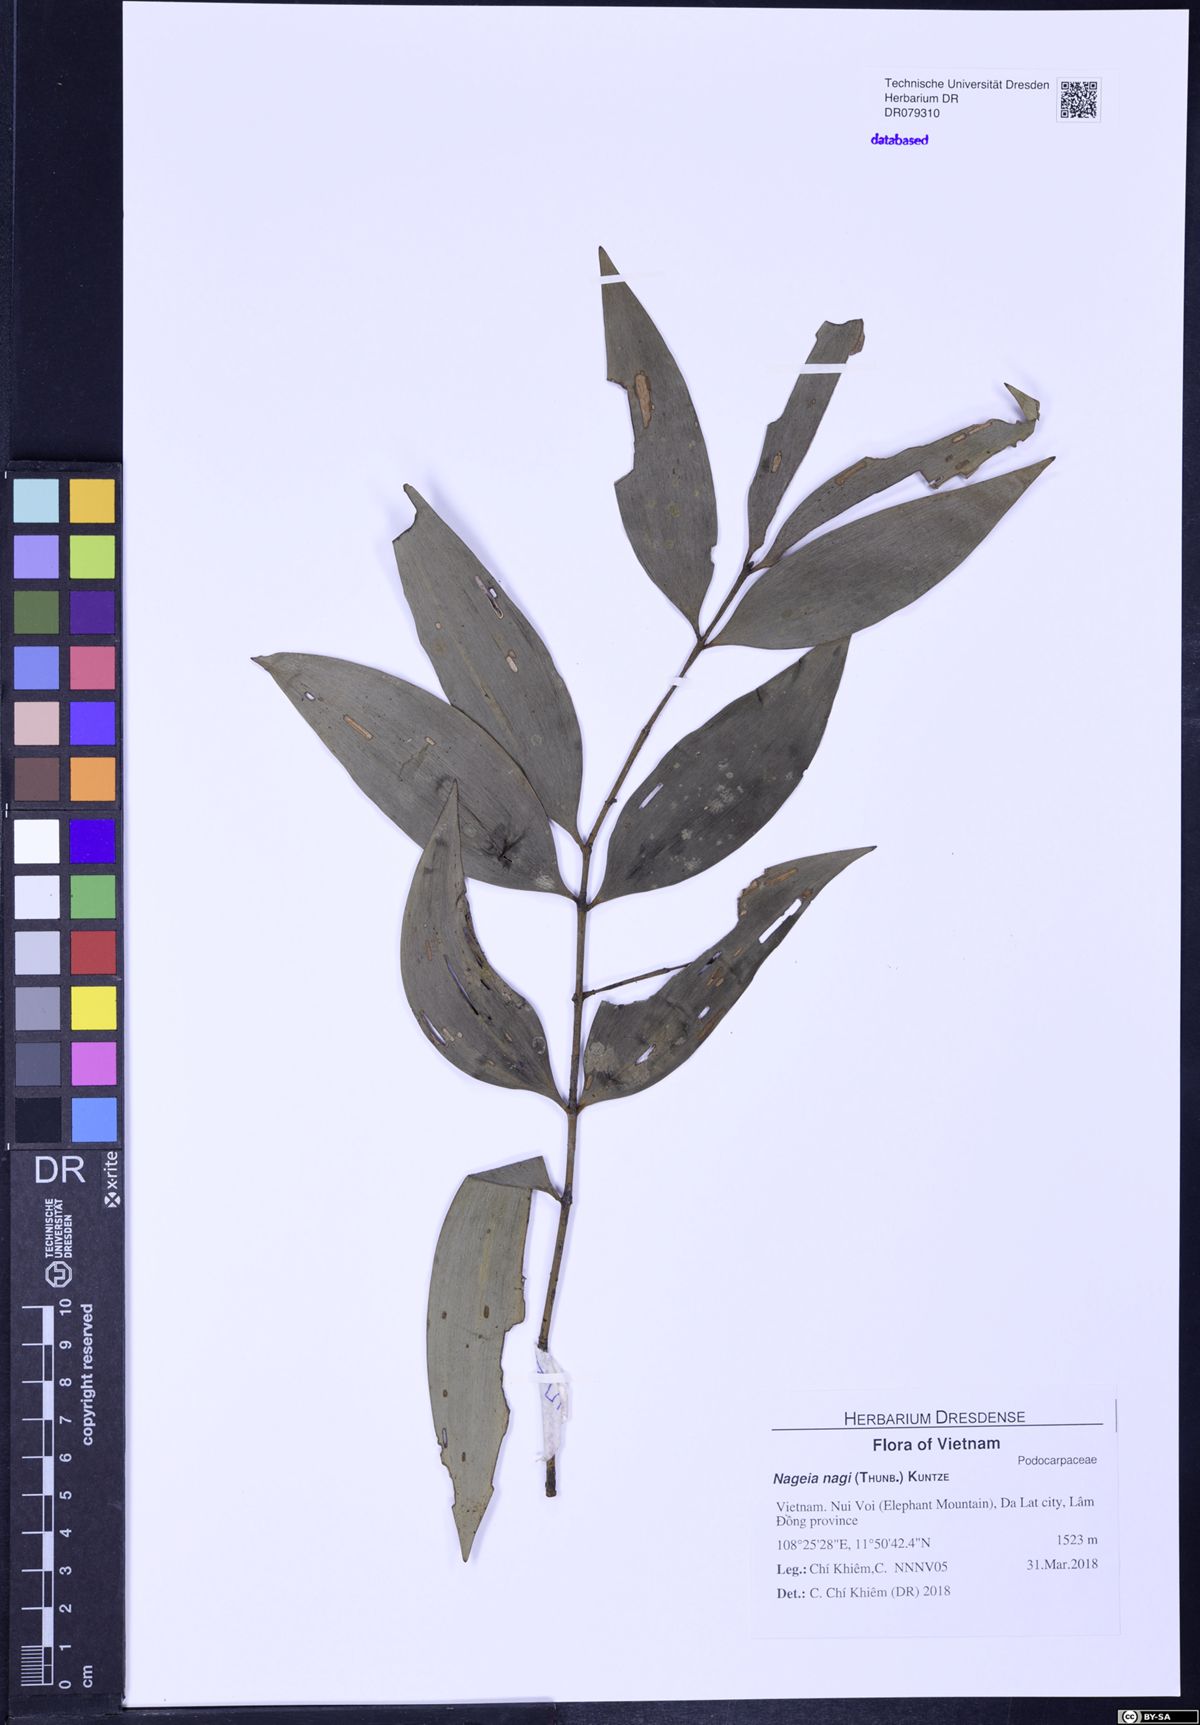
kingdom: Plantae
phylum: Tracheophyta
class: Pinopsida
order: Pinales
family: Podocarpaceae
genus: Nageia
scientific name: Nageia nagi
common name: Kaphal
